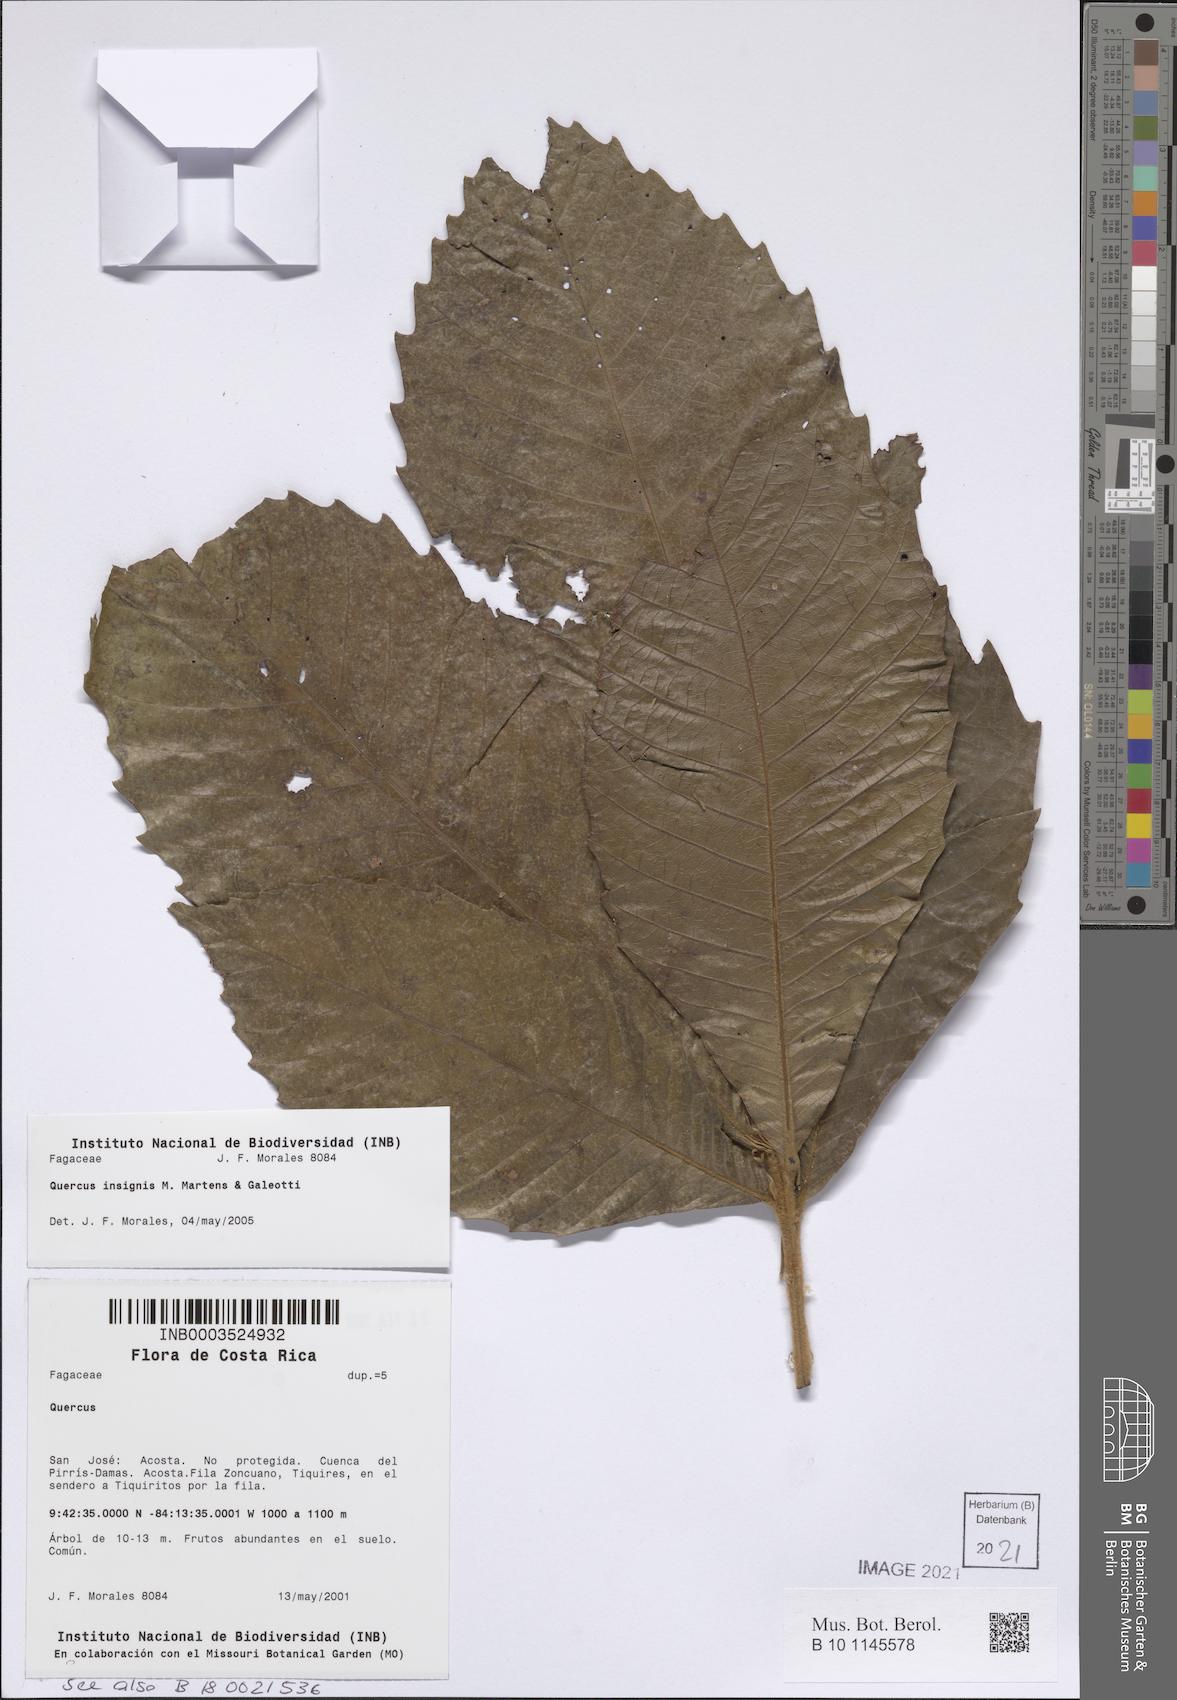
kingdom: Plantae
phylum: Tracheophyta
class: Magnoliopsida
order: Fagales
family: Fagaceae
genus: Quercus
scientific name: Quercus insignis
